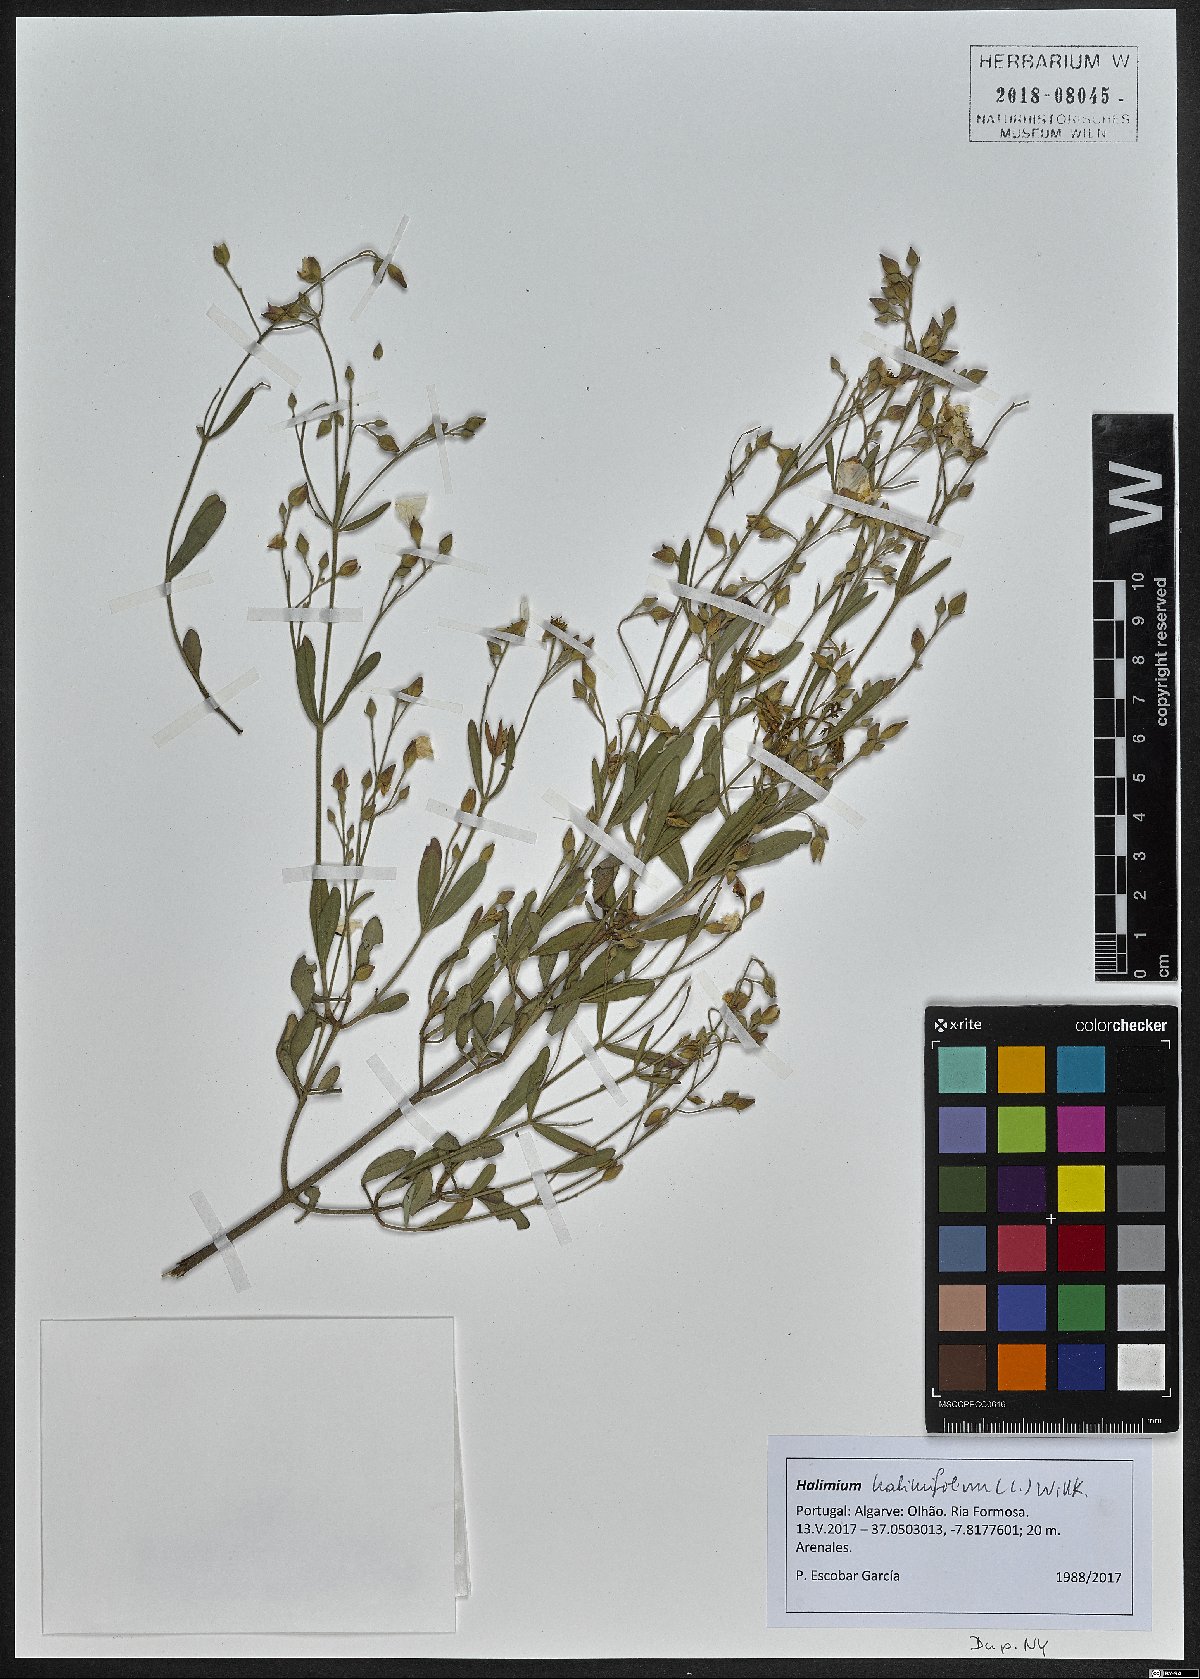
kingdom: Plantae
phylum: Tracheophyta
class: Magnoliopsida
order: Malvales
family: Cistaceae
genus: Halimium
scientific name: Halimium halimifolium
